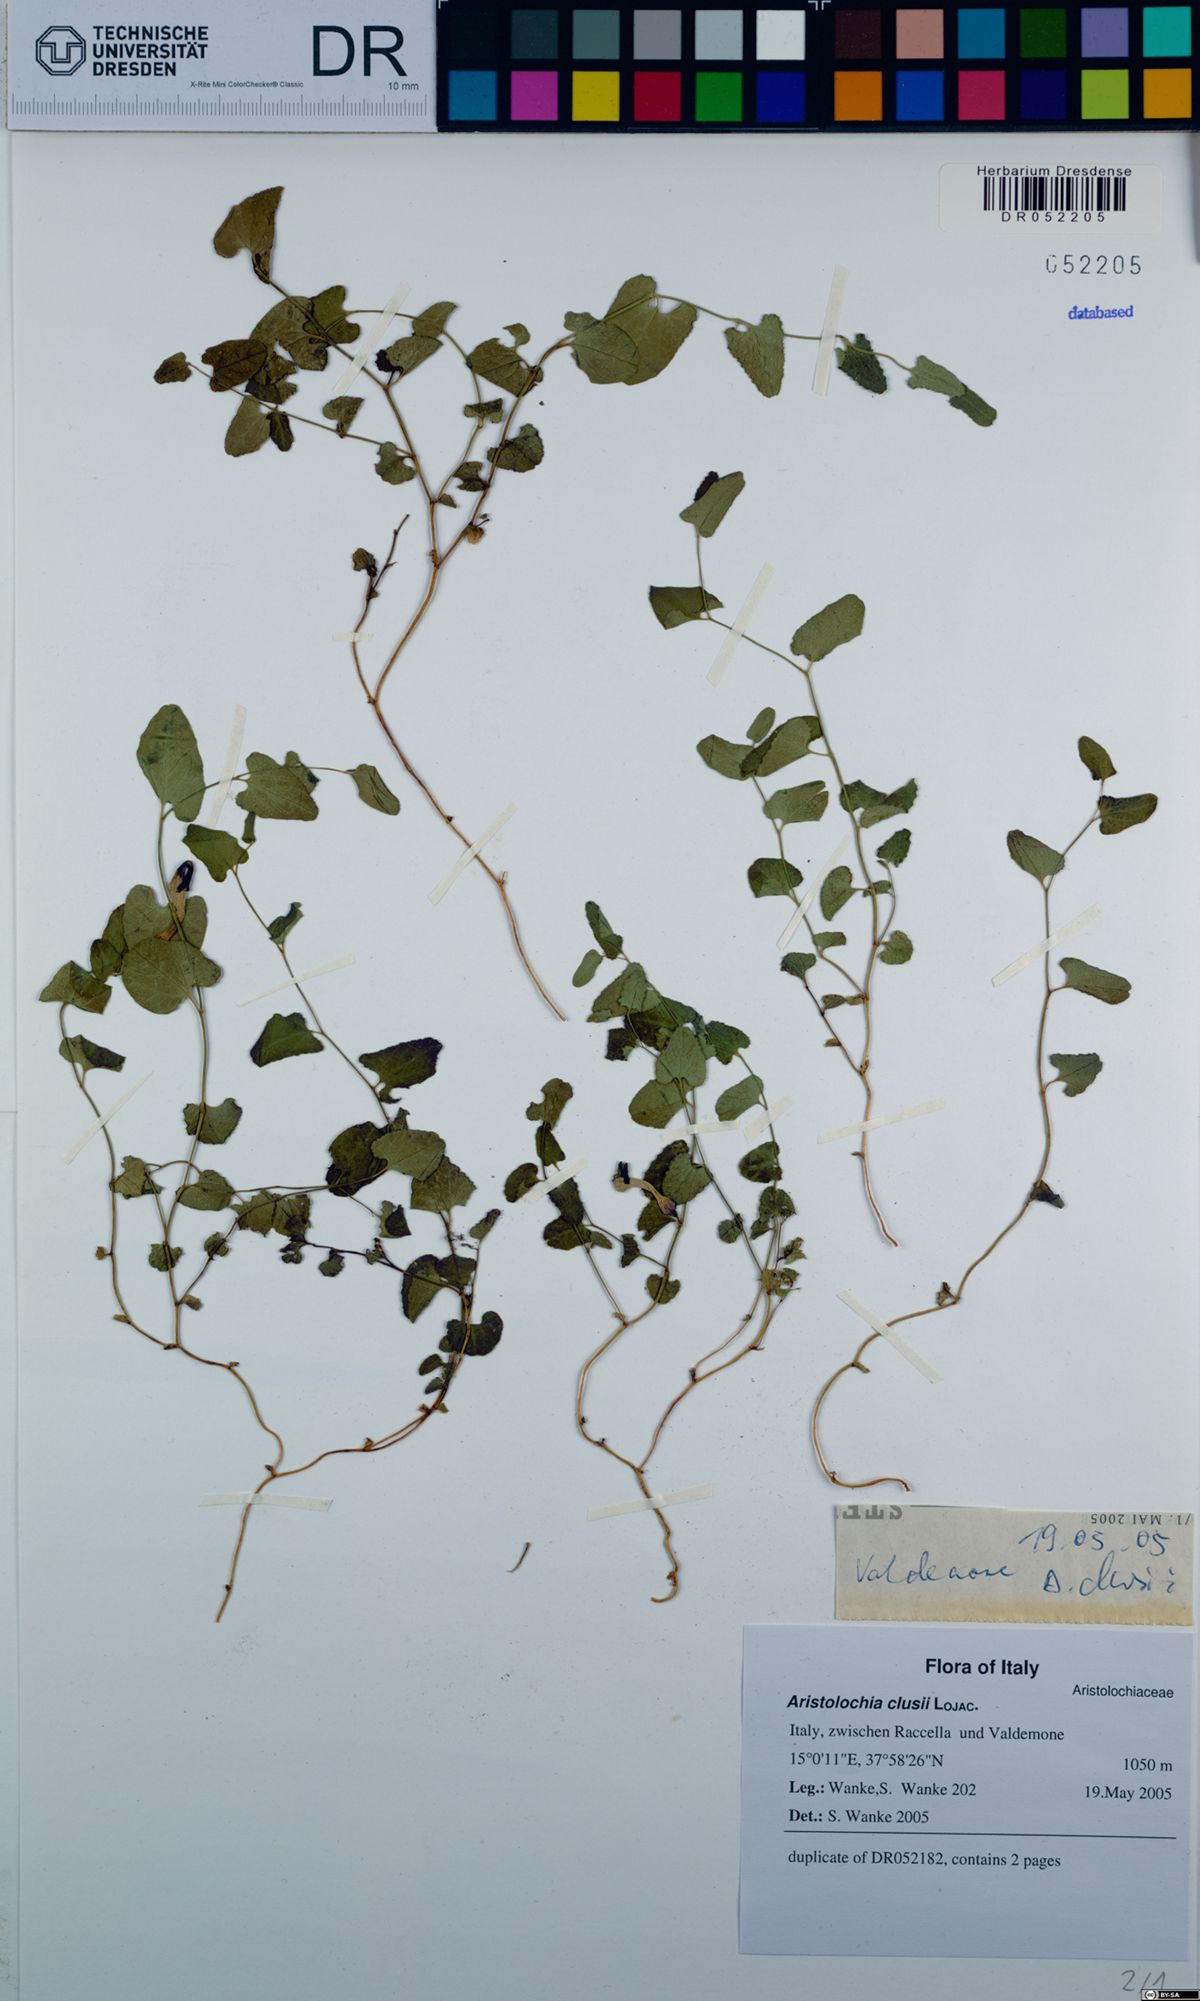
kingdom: Plantae
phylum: Tracheophyta
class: Magnoliopsida
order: Piperales
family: Aristolochiaceae
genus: Aristolochia
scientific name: Aristolochia clusii
